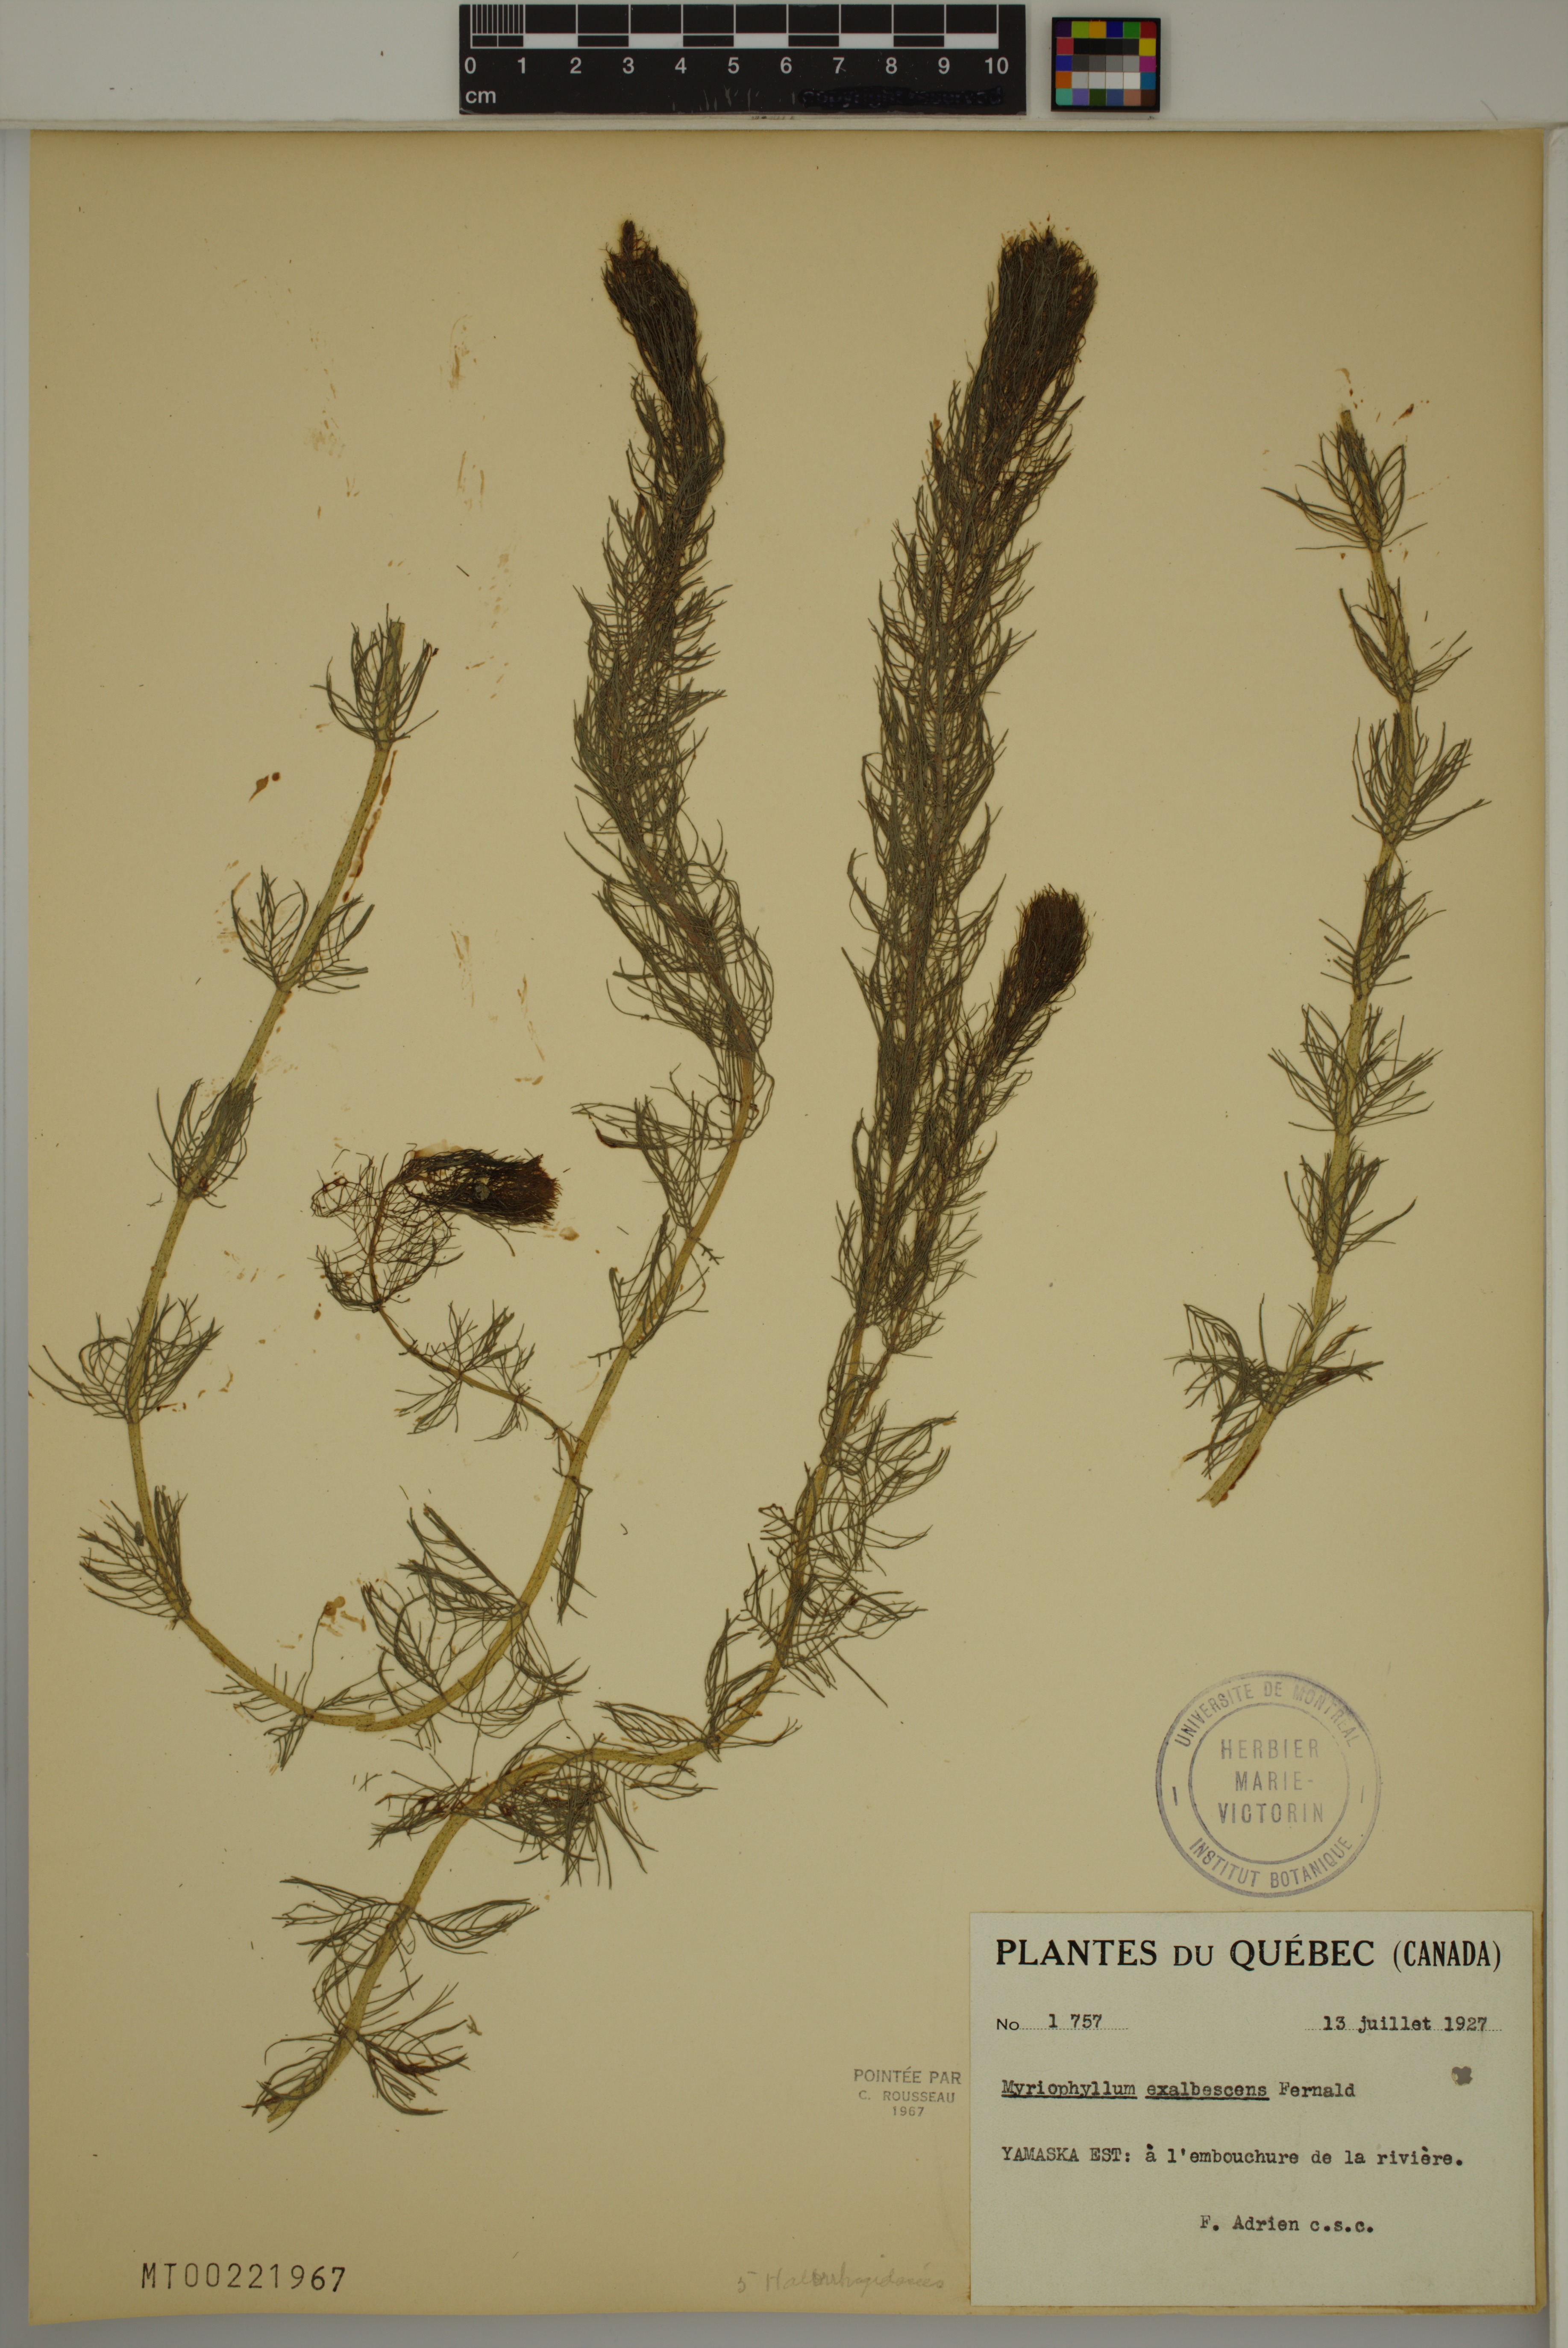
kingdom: Plantae
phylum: Tracheophyta
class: Magnoliopsida
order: Saxifragales
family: Haloragaceae
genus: Myriophyllum
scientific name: Myriophyllum sibiricum
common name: Siberian water-milfoil
